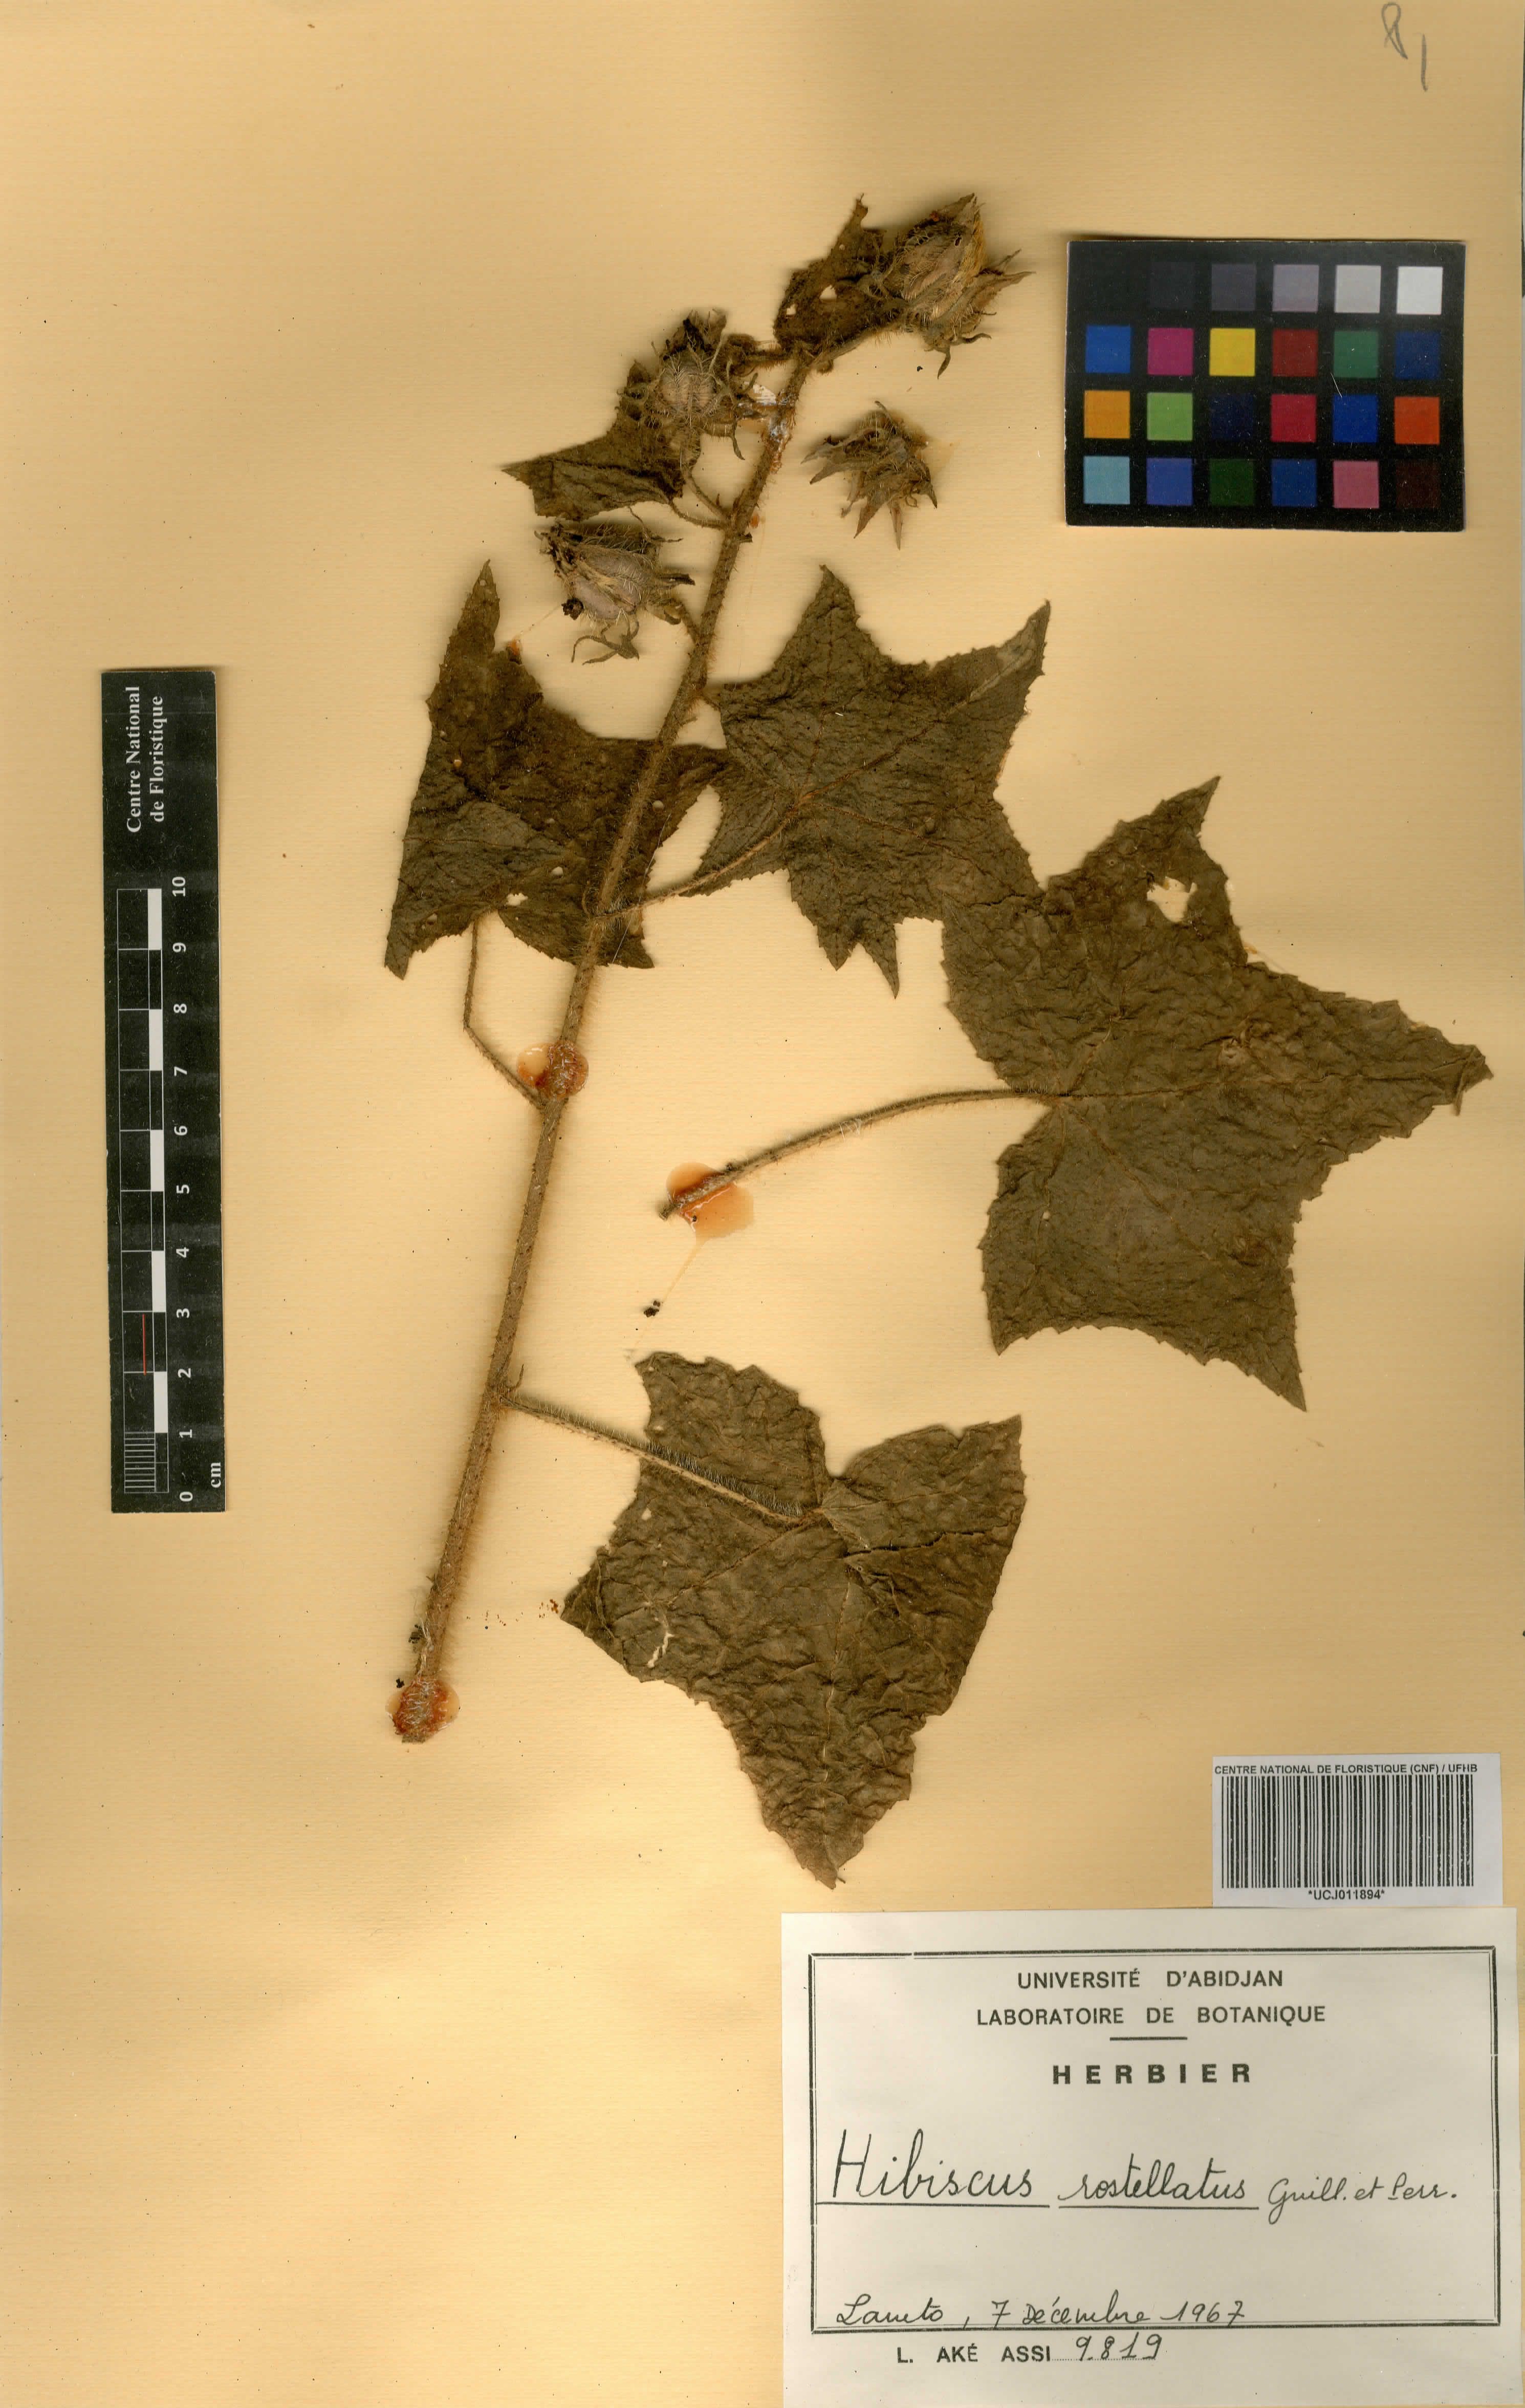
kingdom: Plantae
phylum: Tracheophyta
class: Magnoliopsida
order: Malvales
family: Malvaceae
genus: Hibiscus
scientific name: Hibiscus rostellatus
